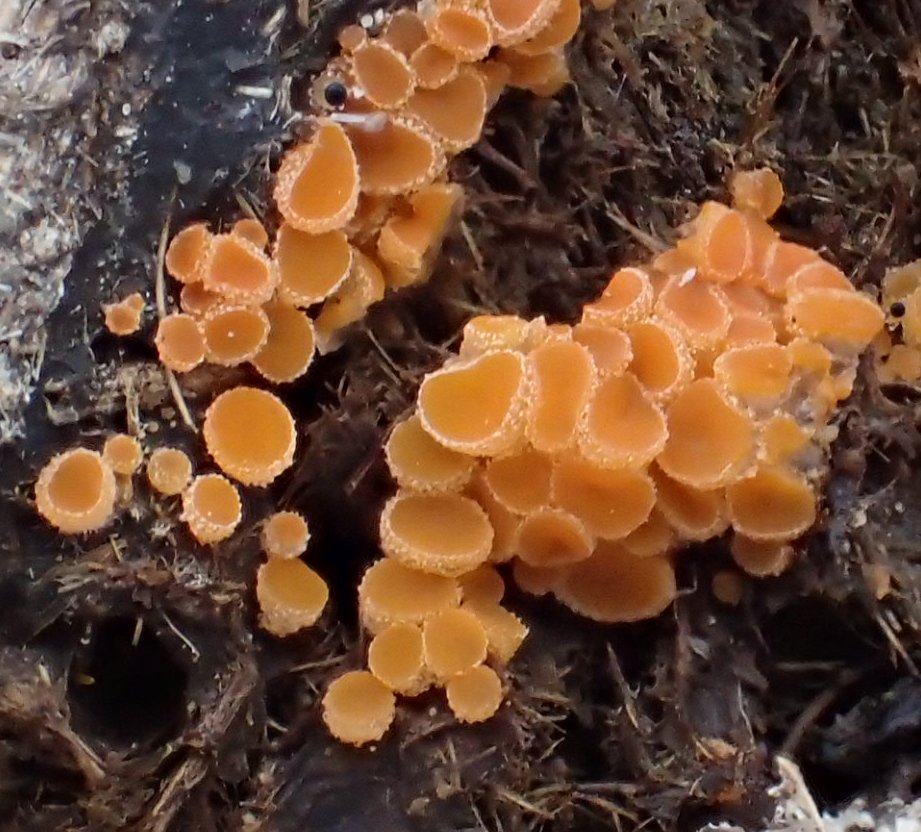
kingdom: Fungi
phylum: Ascomycota
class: Pezizomycetes
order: Pezizales
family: Pyronemataceae
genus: Cheilymenia
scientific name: Cheilymenia granulata
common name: møgbæger
